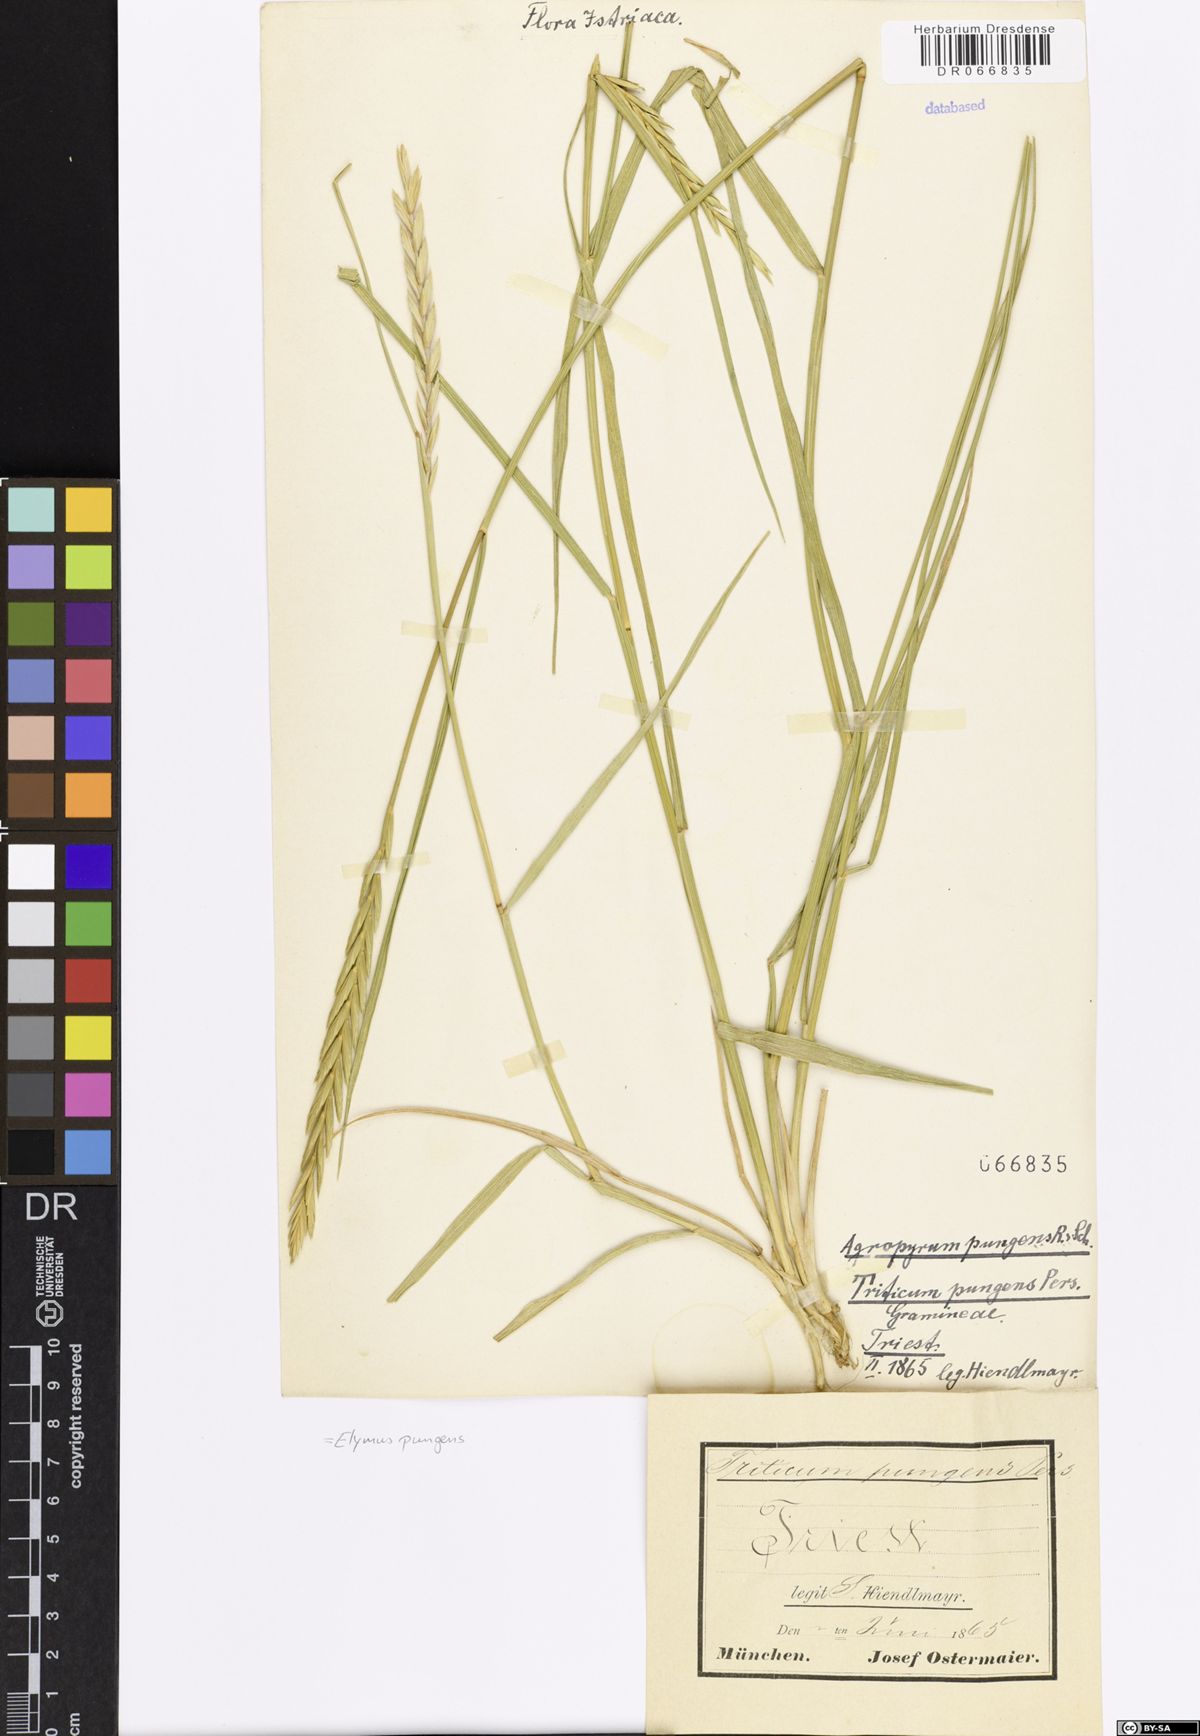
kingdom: Plantae
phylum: Tracheophyta
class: Liliopsida
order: Poales
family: Poaceae
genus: Elymus
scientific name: Elymus pungens
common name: Sea couch
